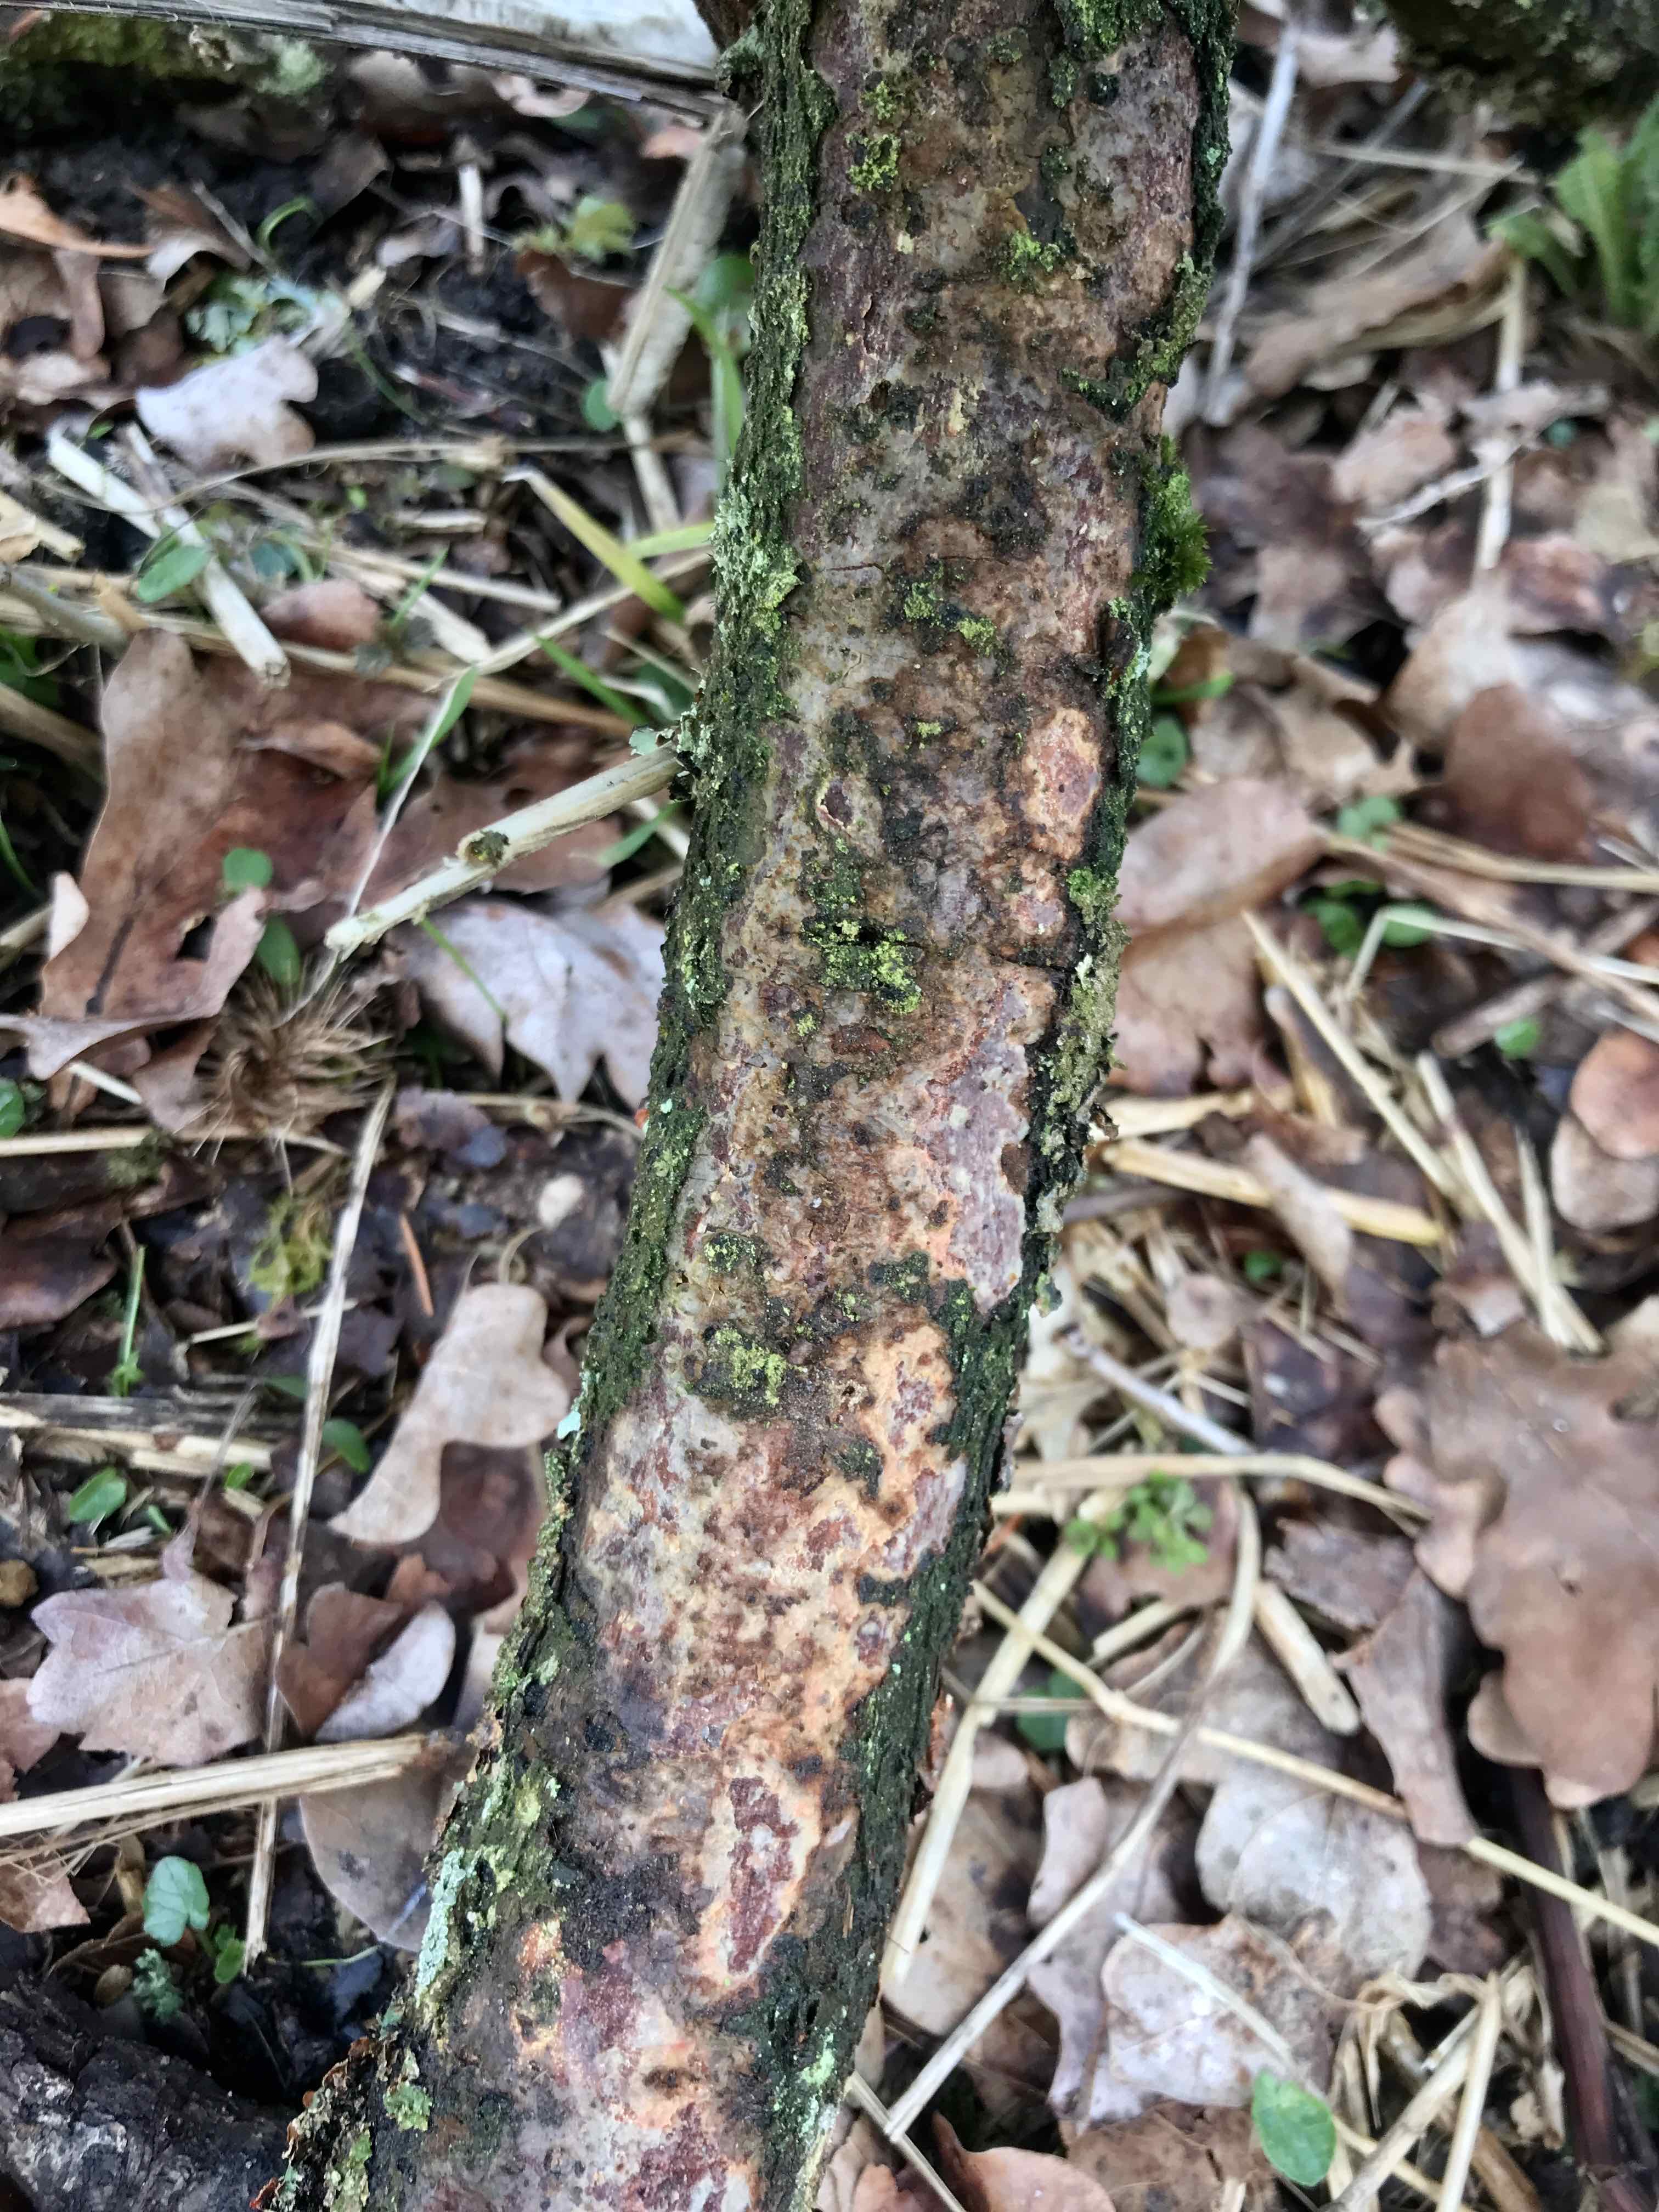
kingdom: Fungi
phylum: Basidiomycota
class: Agaricomycetes
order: Corticiales
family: Vuilleminiaceae
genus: Vuilleminia
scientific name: Vuilleminia comedens
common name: almindelig barksprænger
